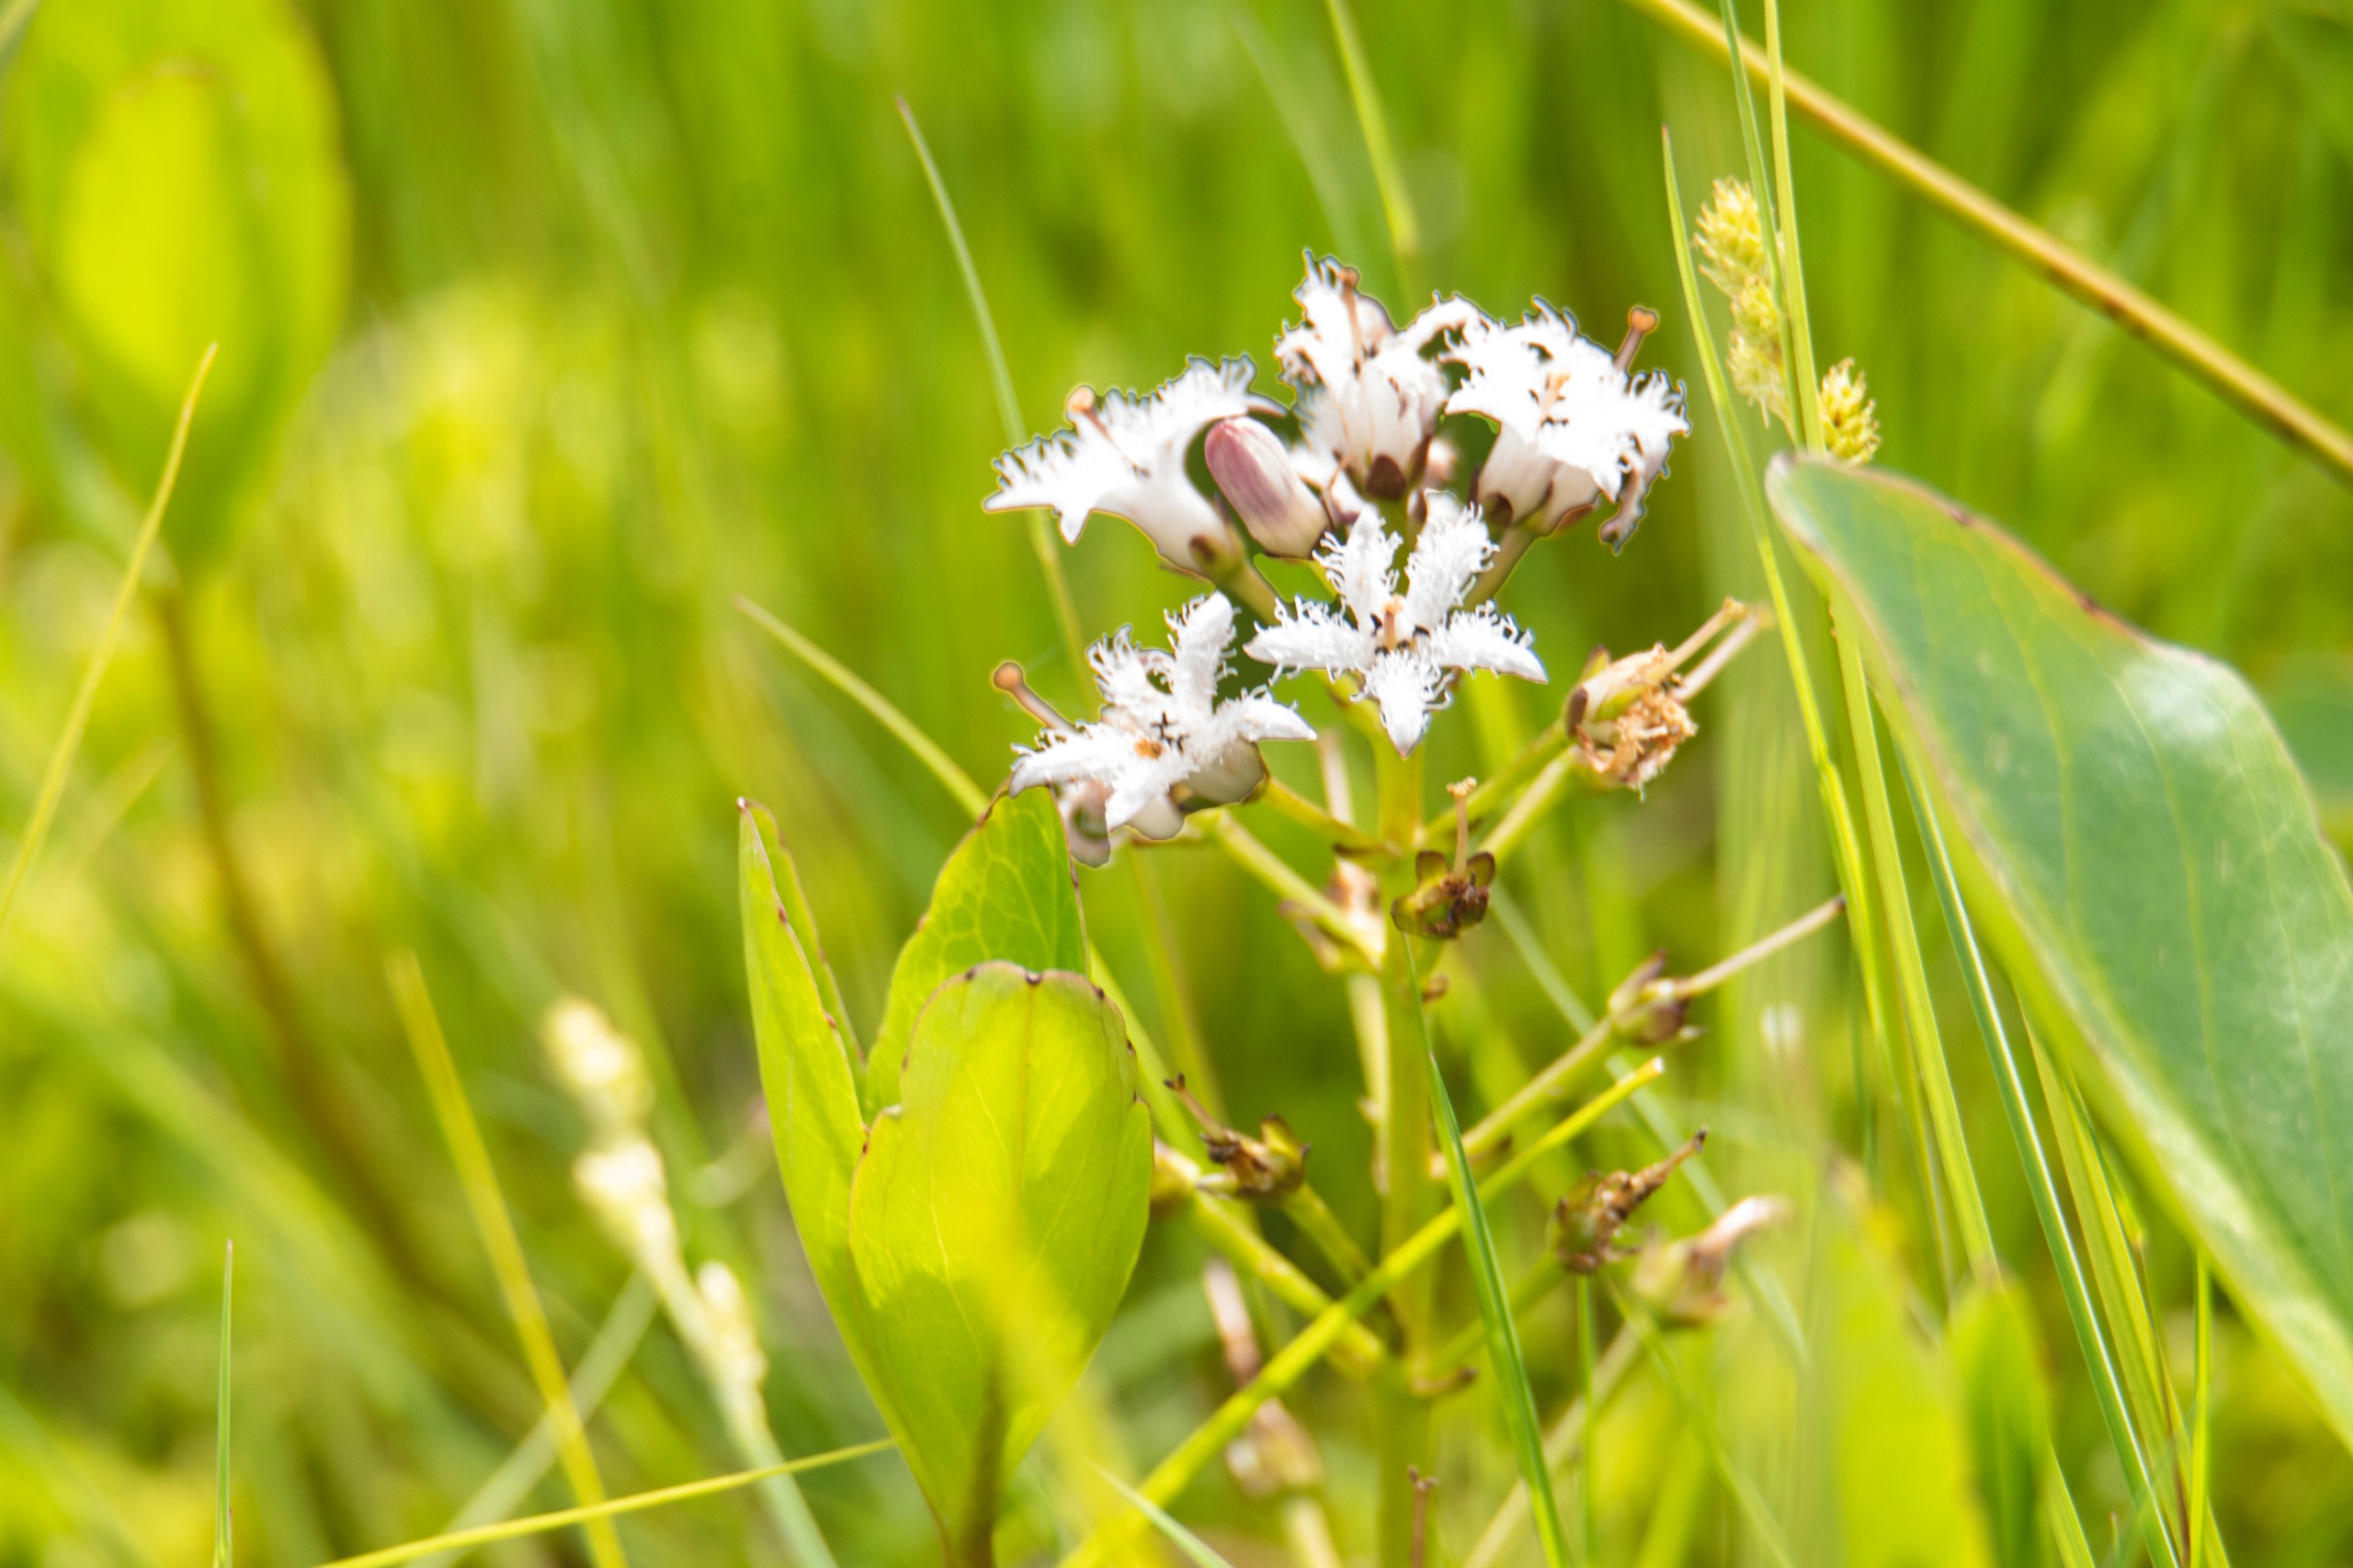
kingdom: Plantae
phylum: Tracheophyta
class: Magnoliopsida
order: Asterales
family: Menyanthaceae
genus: Menyanthes
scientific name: Menyanthes trifoliata
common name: Bukkeblad
